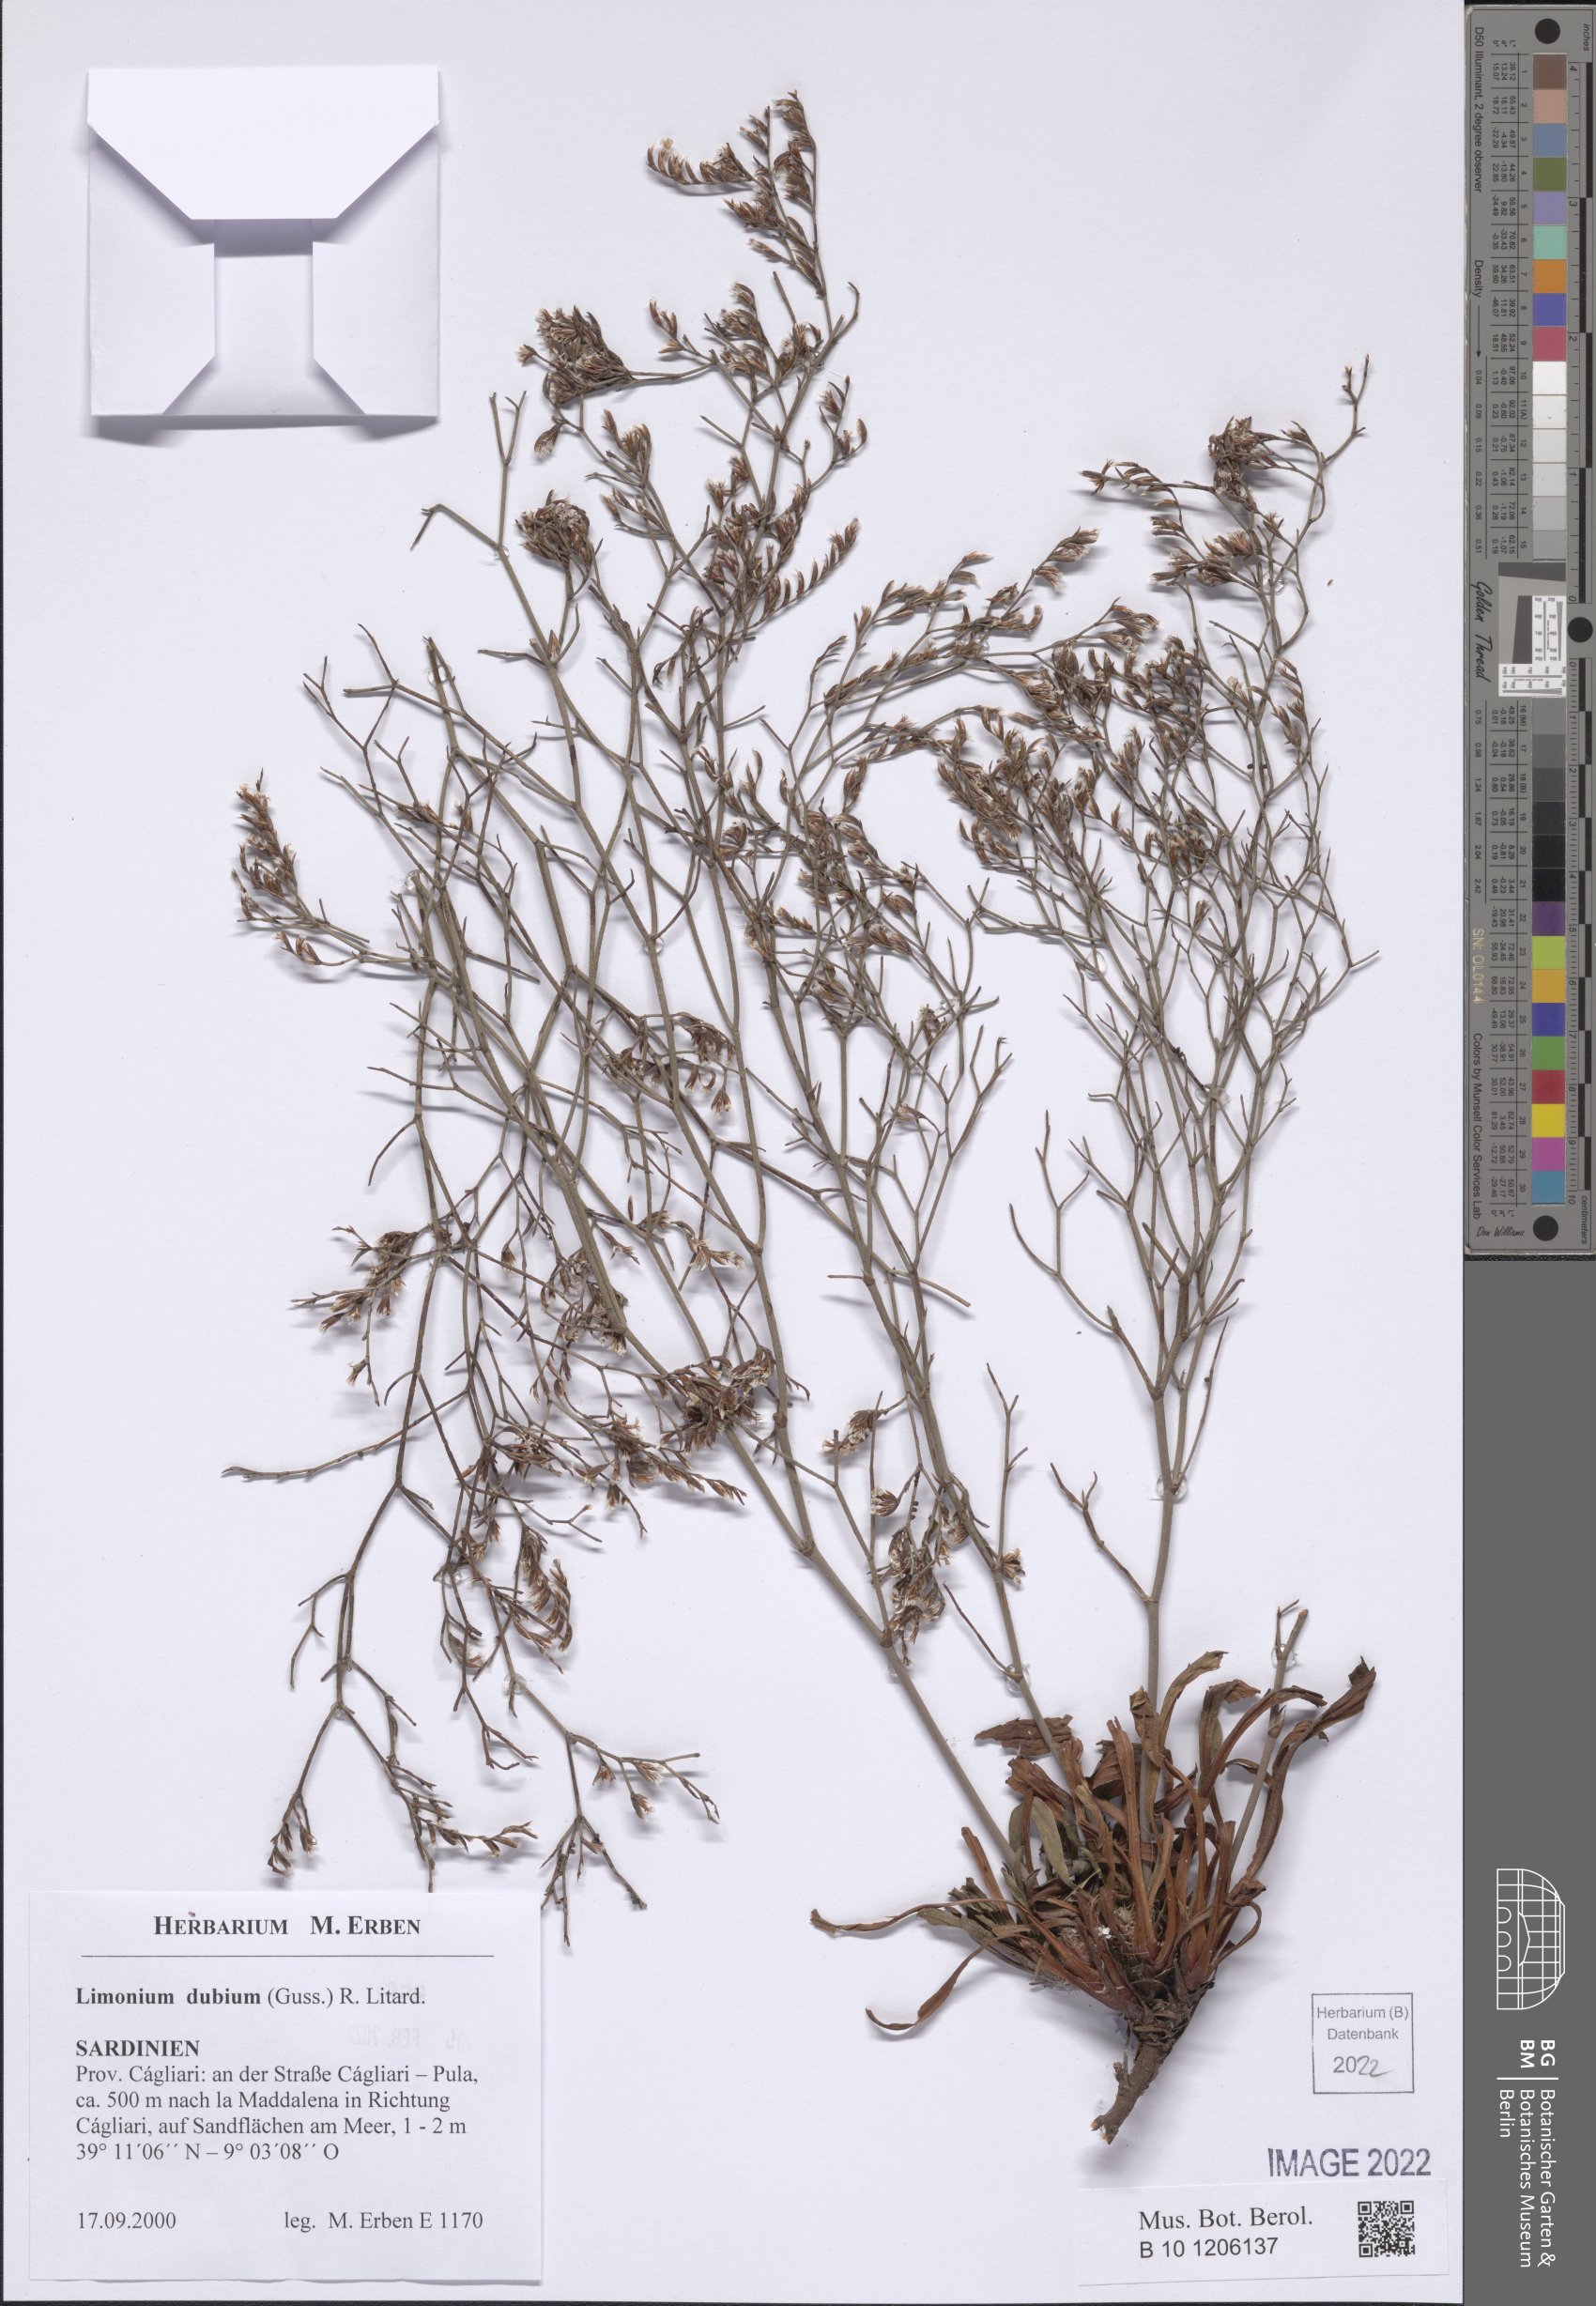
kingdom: Plantae
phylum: Tracheophyta
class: Magnoliopsida
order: Caryophyllales
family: Plumbaginaceae
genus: Limonium
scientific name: Limonium dubium
